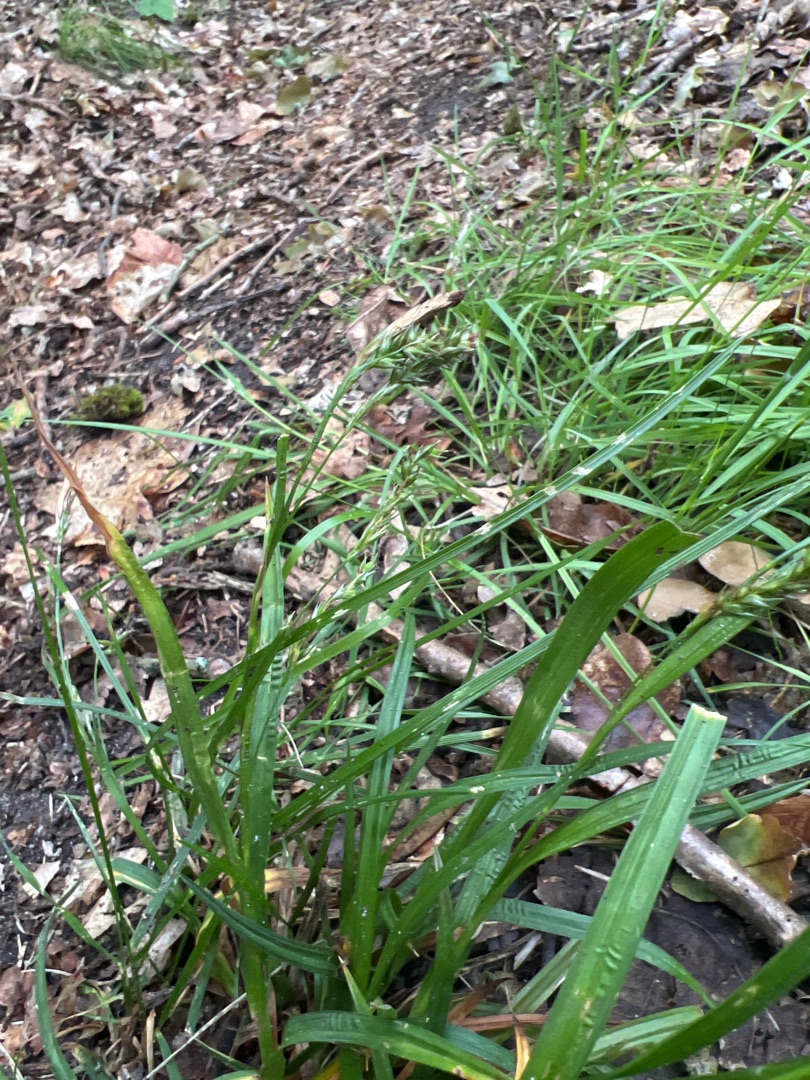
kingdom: Plantae
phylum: Tracheophyta
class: Liliopsida
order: Poales
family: Cyperaceae
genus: Carex
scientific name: Carex sylvatica
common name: Skov-star
